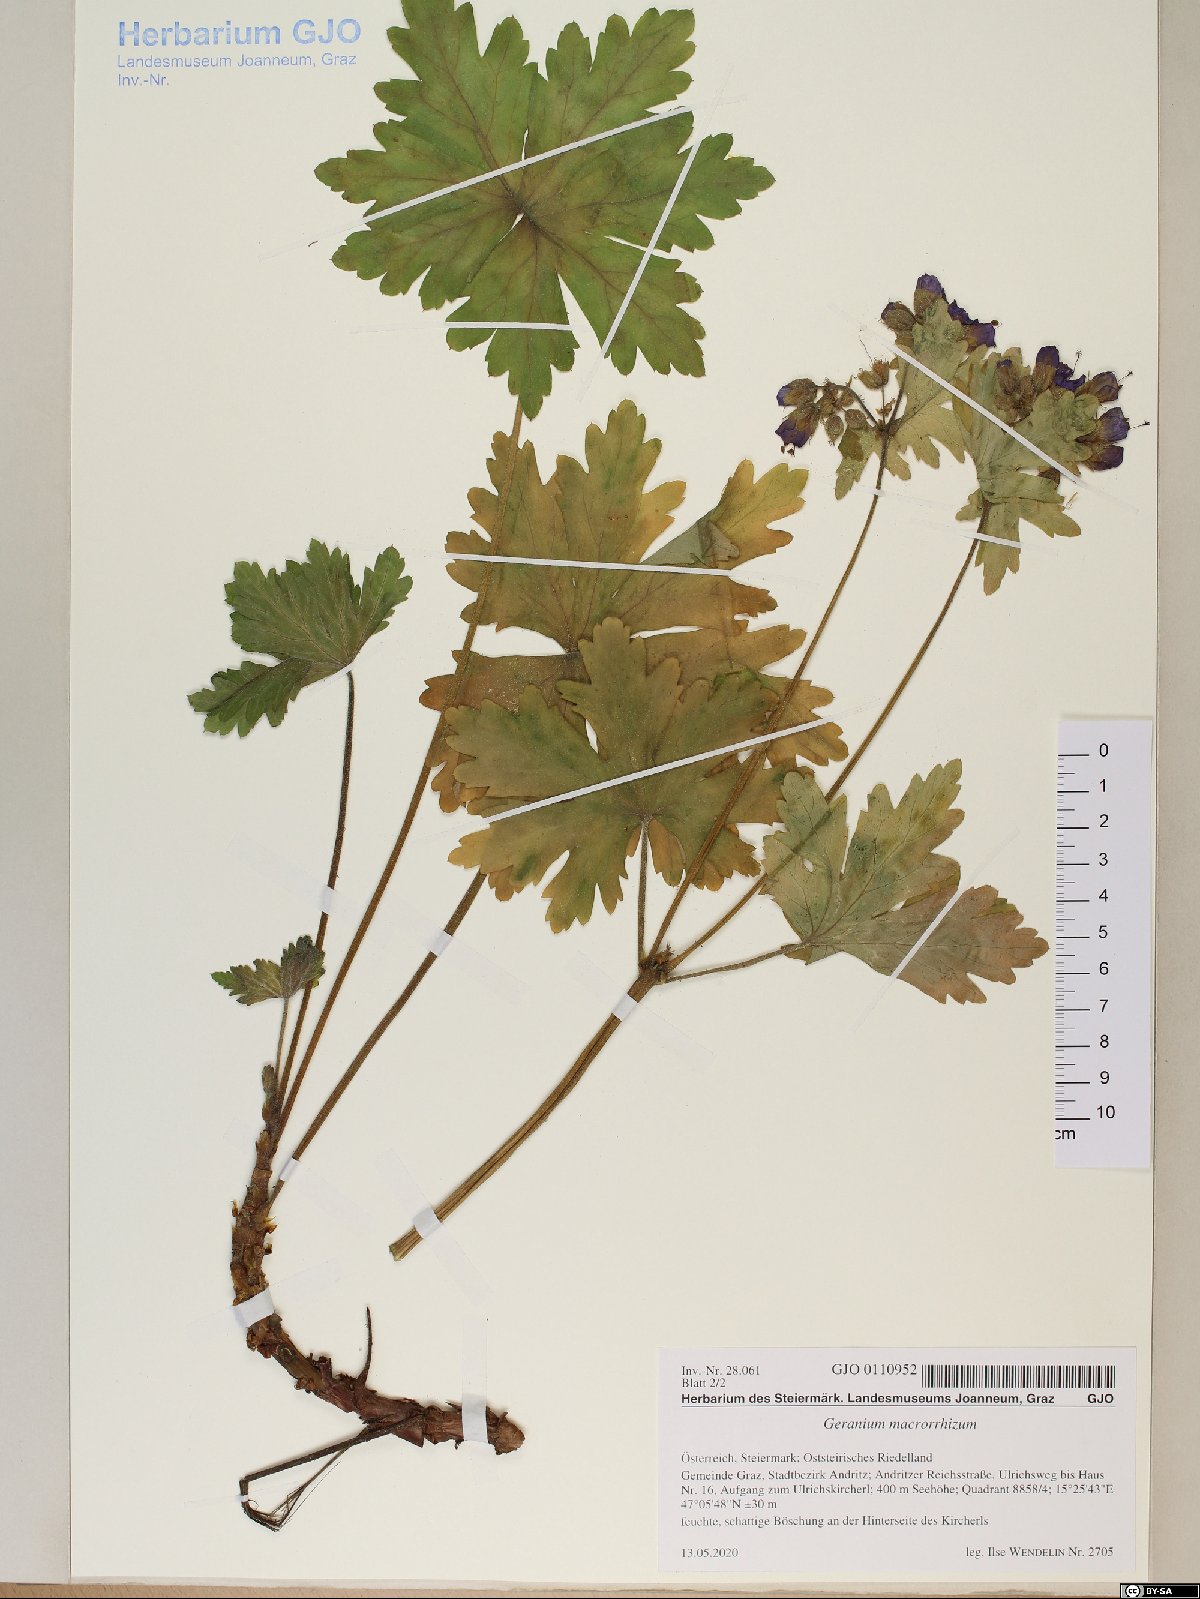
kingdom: Plantae
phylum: Tracheophyta
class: Magnoliopsida
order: Geraniales
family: Geraniaceae
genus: Geranium
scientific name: Geranium macrorrhizum
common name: Rock crane's-bill
